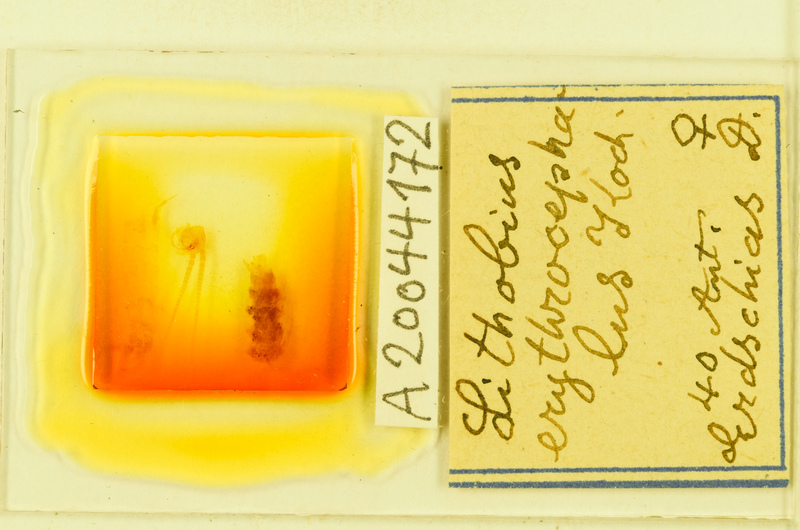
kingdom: Animalia
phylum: Arthropoda
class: Chilopoda
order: Lithobiomorpha
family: Lithobiidae
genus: Lithobius
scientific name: Lithobius erythrocephalus
